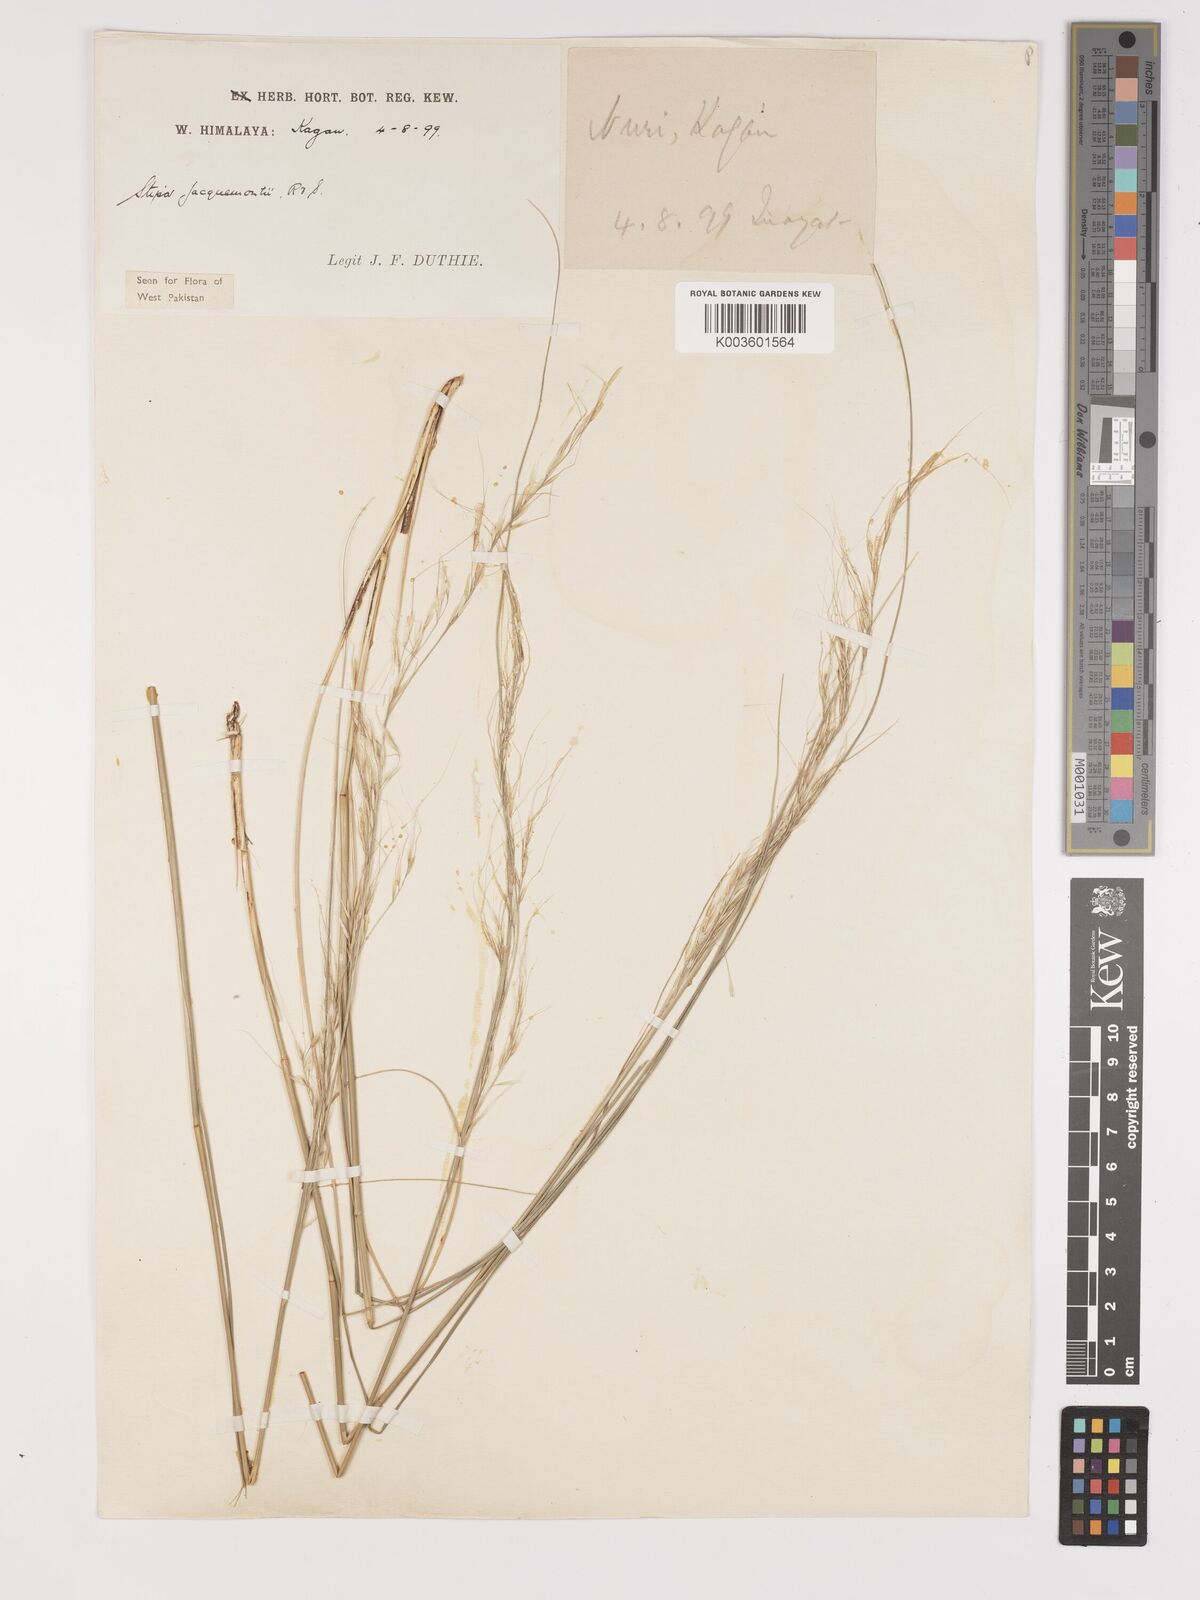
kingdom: Plantae
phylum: Tracheophyta
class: Liliopsida
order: Poales
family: Poaceae
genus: Achnatherum
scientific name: Achnatherum jacquemontii
